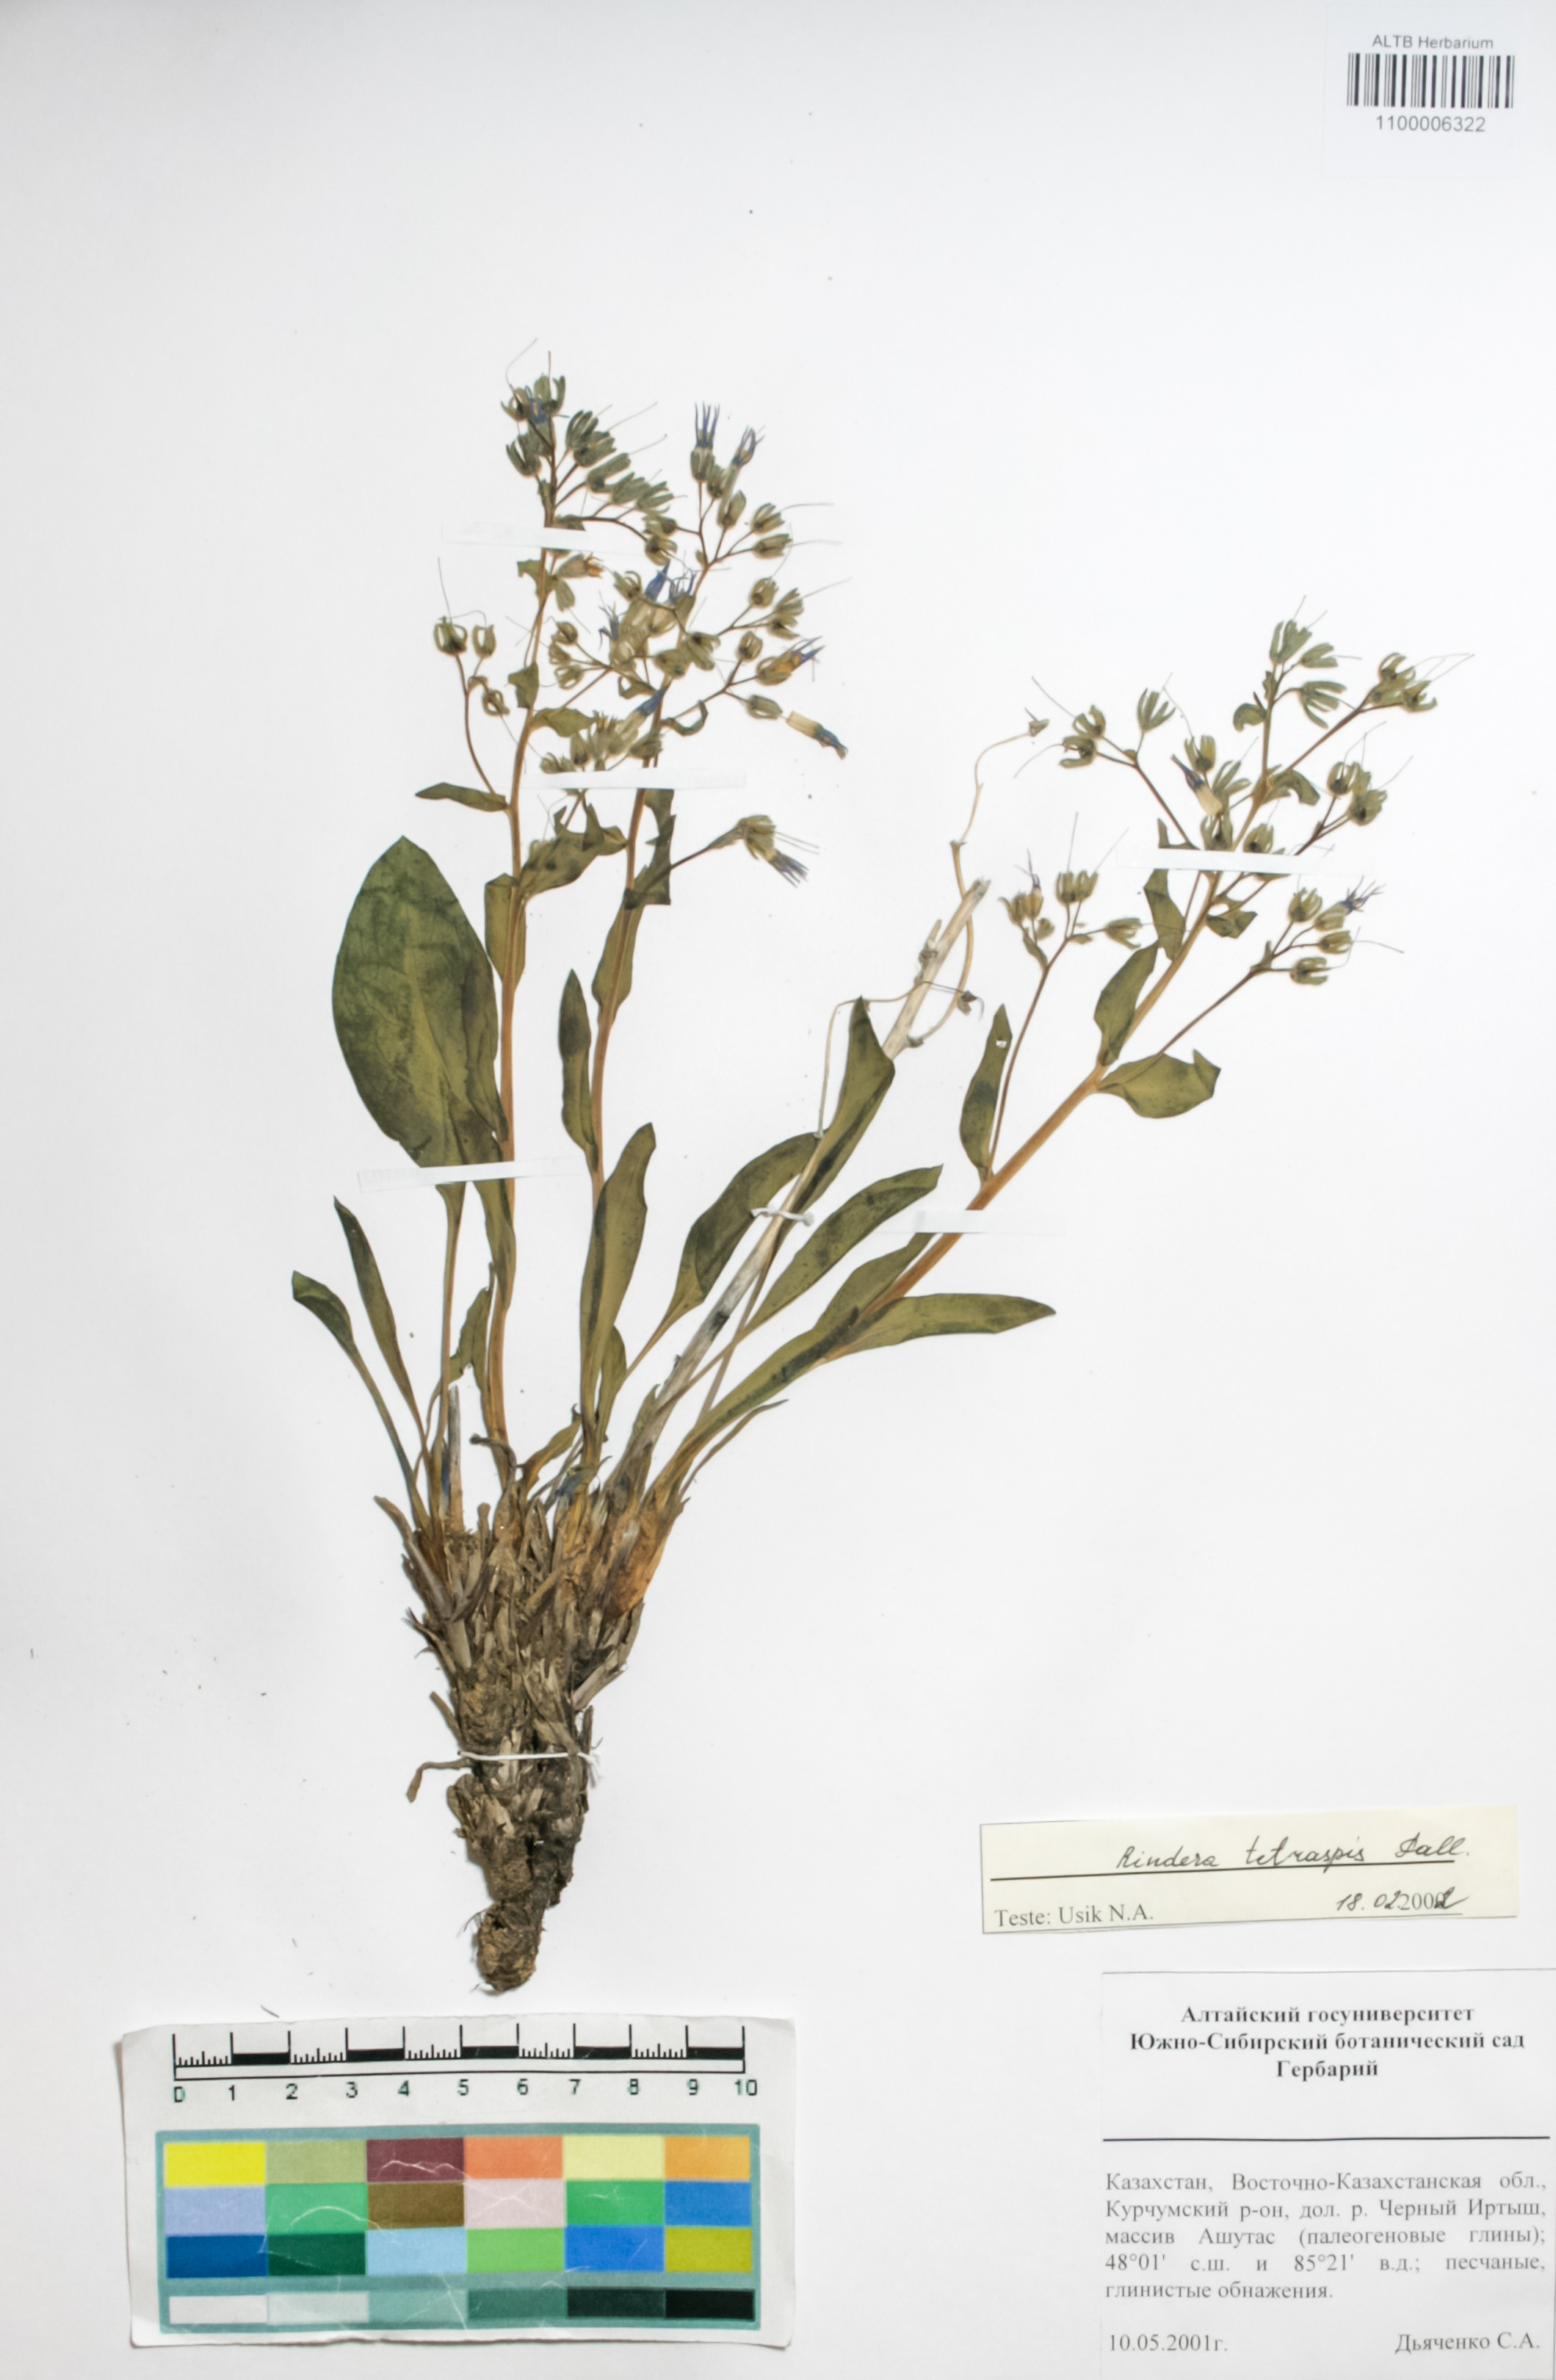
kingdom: Plantae
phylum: Tracheophyta
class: Magnoliopsida
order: Boraginales
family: Boraginaceae
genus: Rindera
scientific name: Rindera tetraspis
